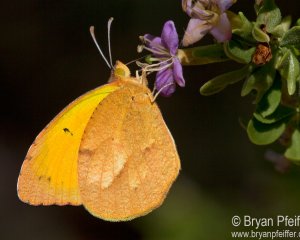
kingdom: Animalia
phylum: Arthropoda
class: Insecta
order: Lepidoptera
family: Pieridae
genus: Abaeis
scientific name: Abaeis nicippe
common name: Sleepy Orange
